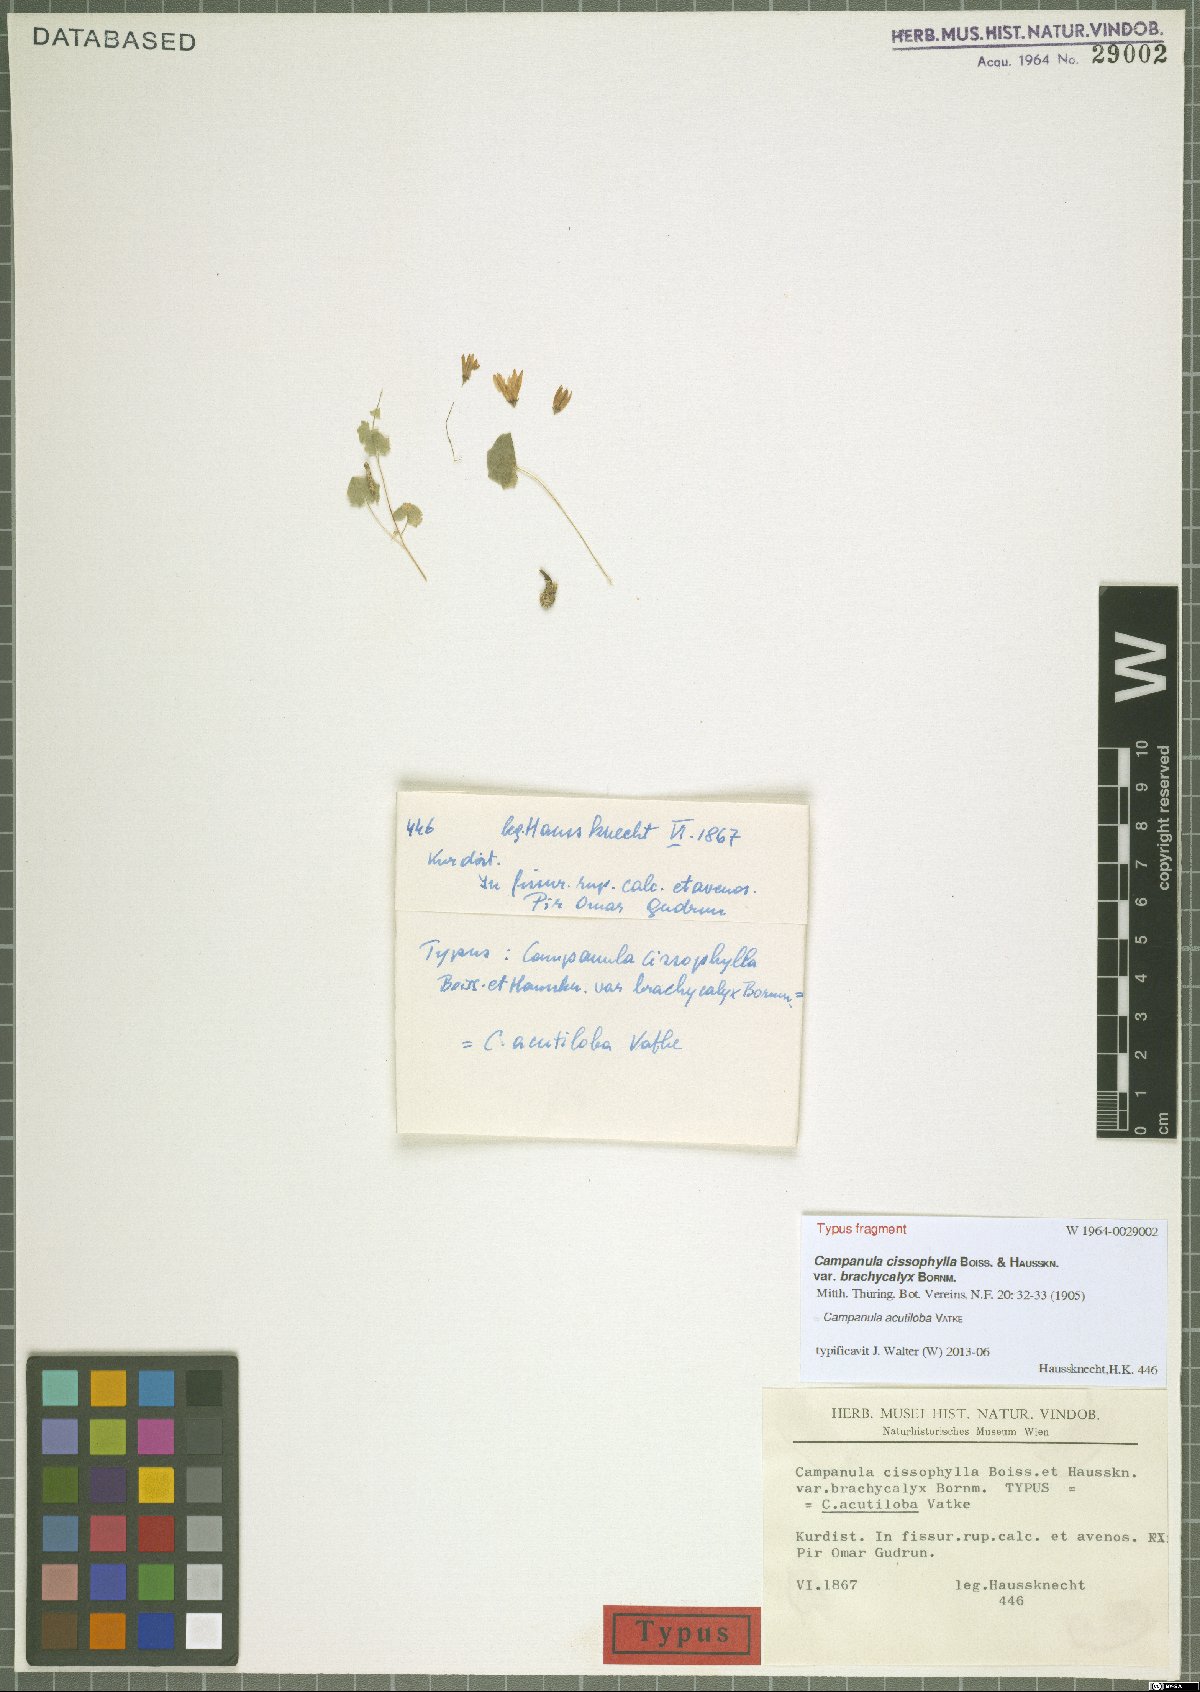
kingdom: Plantae
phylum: Tracheophyta
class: Magnoliopsida
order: Asterales
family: Campanulaceae
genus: Campanula
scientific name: Campanula acutiloba
